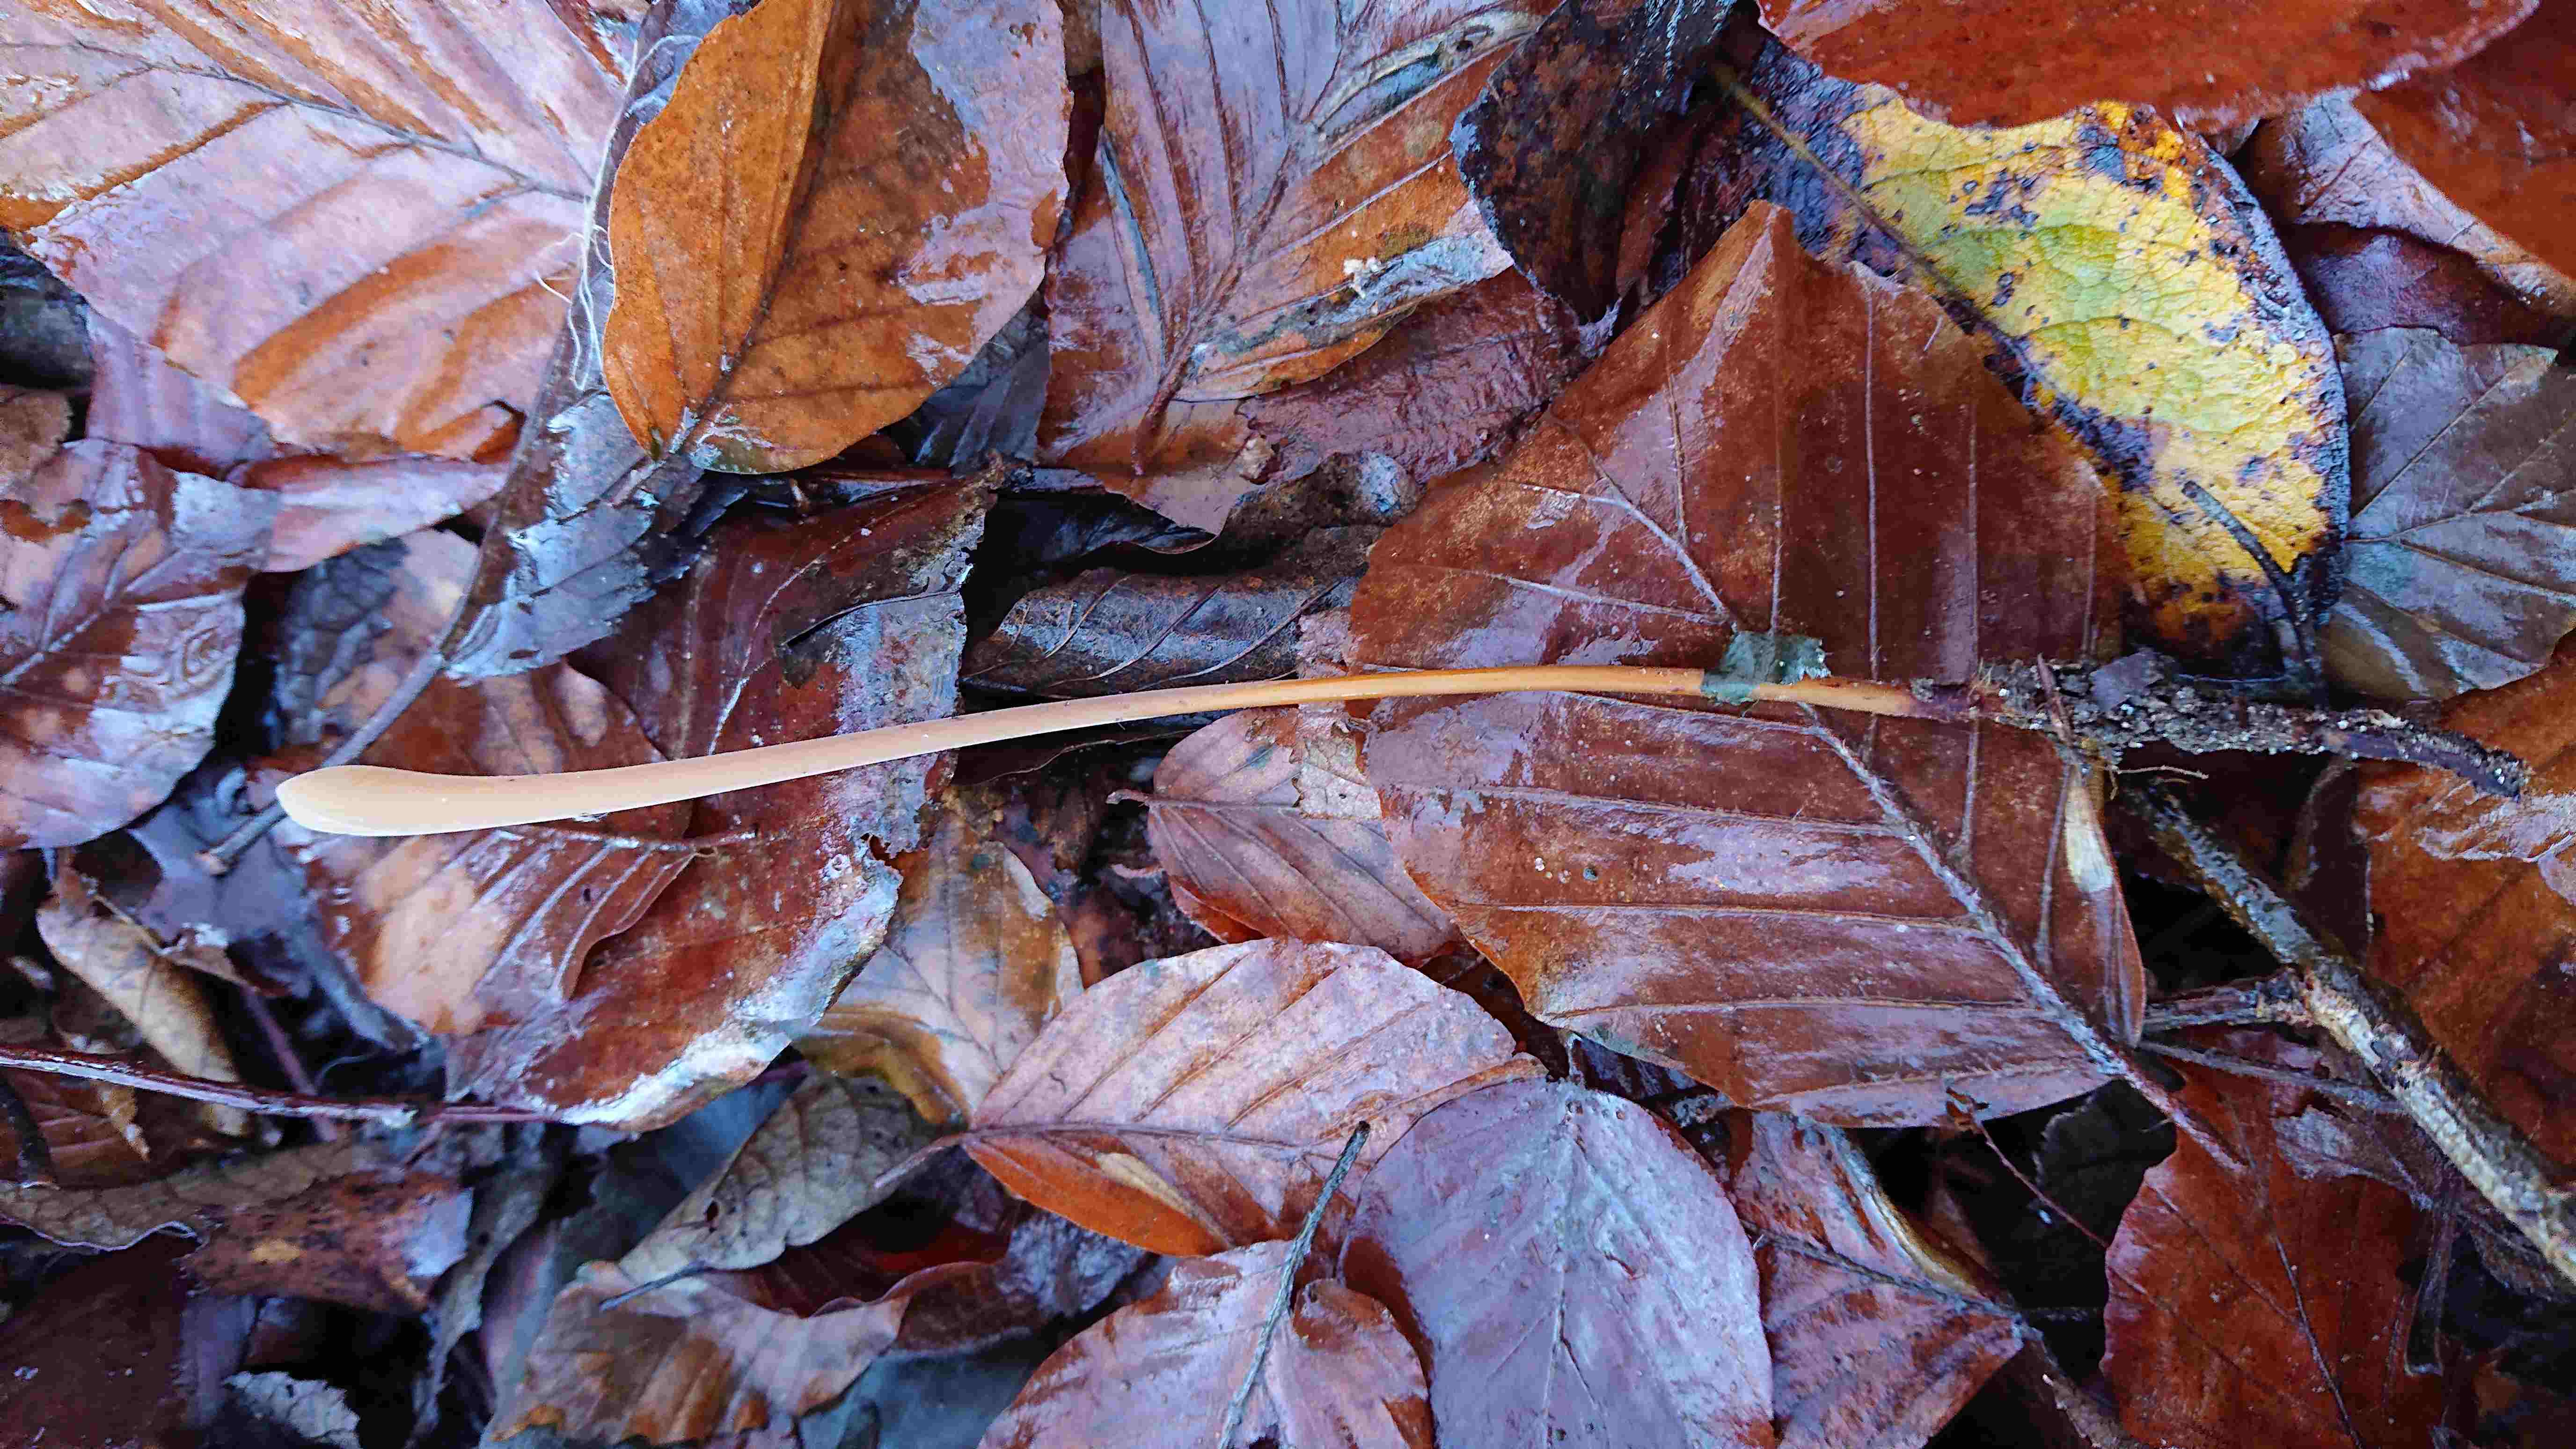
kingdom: Fungi
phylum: Basidiomycota
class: Agaricomycetes
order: Agaricales
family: Typhulaceae
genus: Typhula
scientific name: Typhula fistulosa
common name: pibet rørkølle
